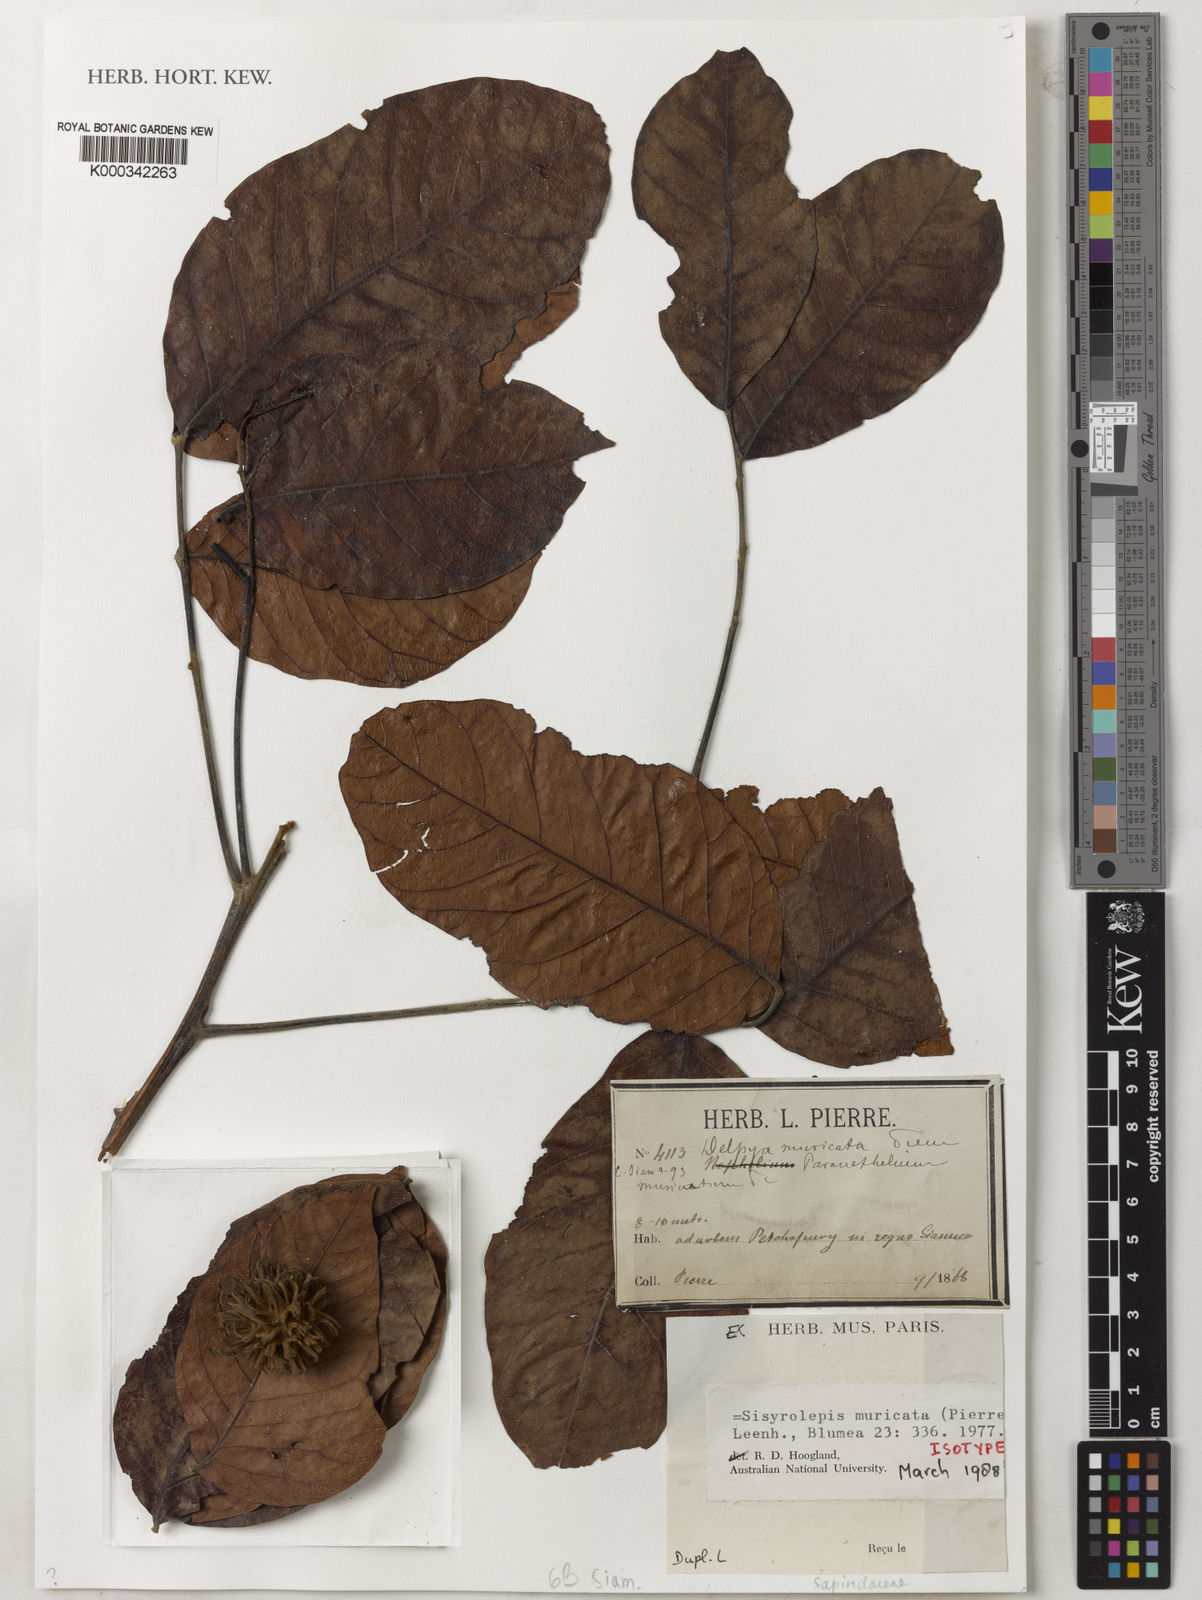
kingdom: Plantae
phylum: Tracheophyta
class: Magnoliopsida
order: Sapindales
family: Sapindaceae
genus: Sisyrolepis
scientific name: Sisyrolepis muricata
